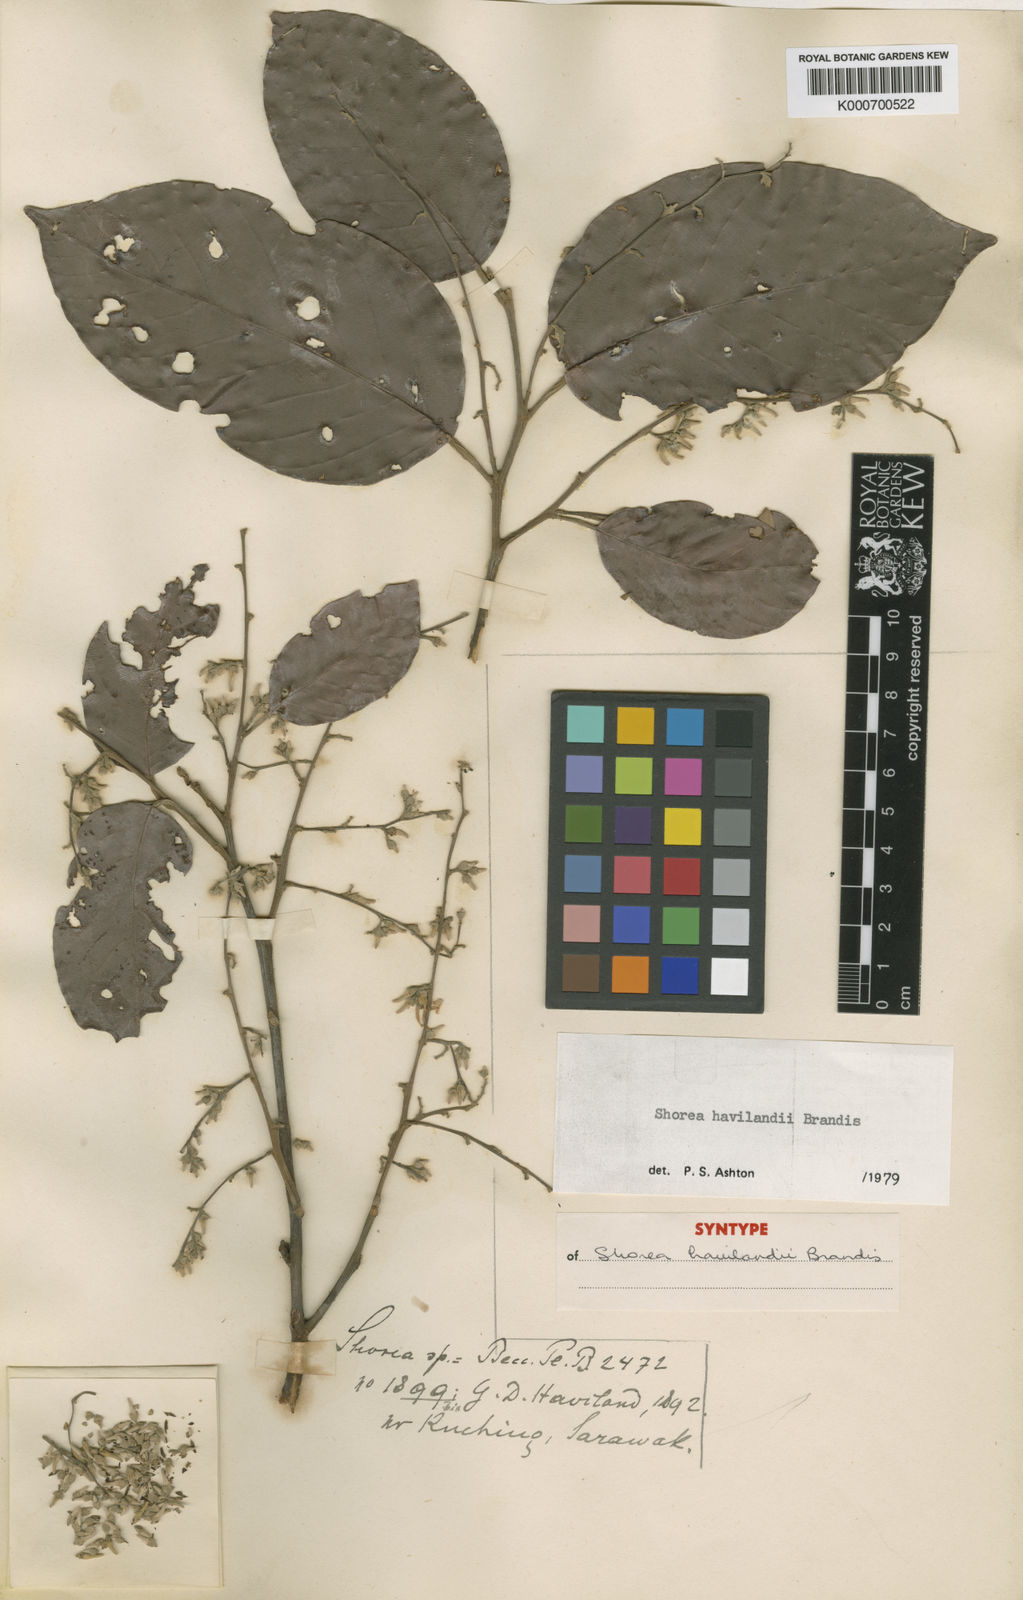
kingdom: Plantae
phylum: Tracheophyta
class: Magnoliopsida
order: Malvales
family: Dipterocarpaceae
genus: Shorea
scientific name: Shorea havilandii
